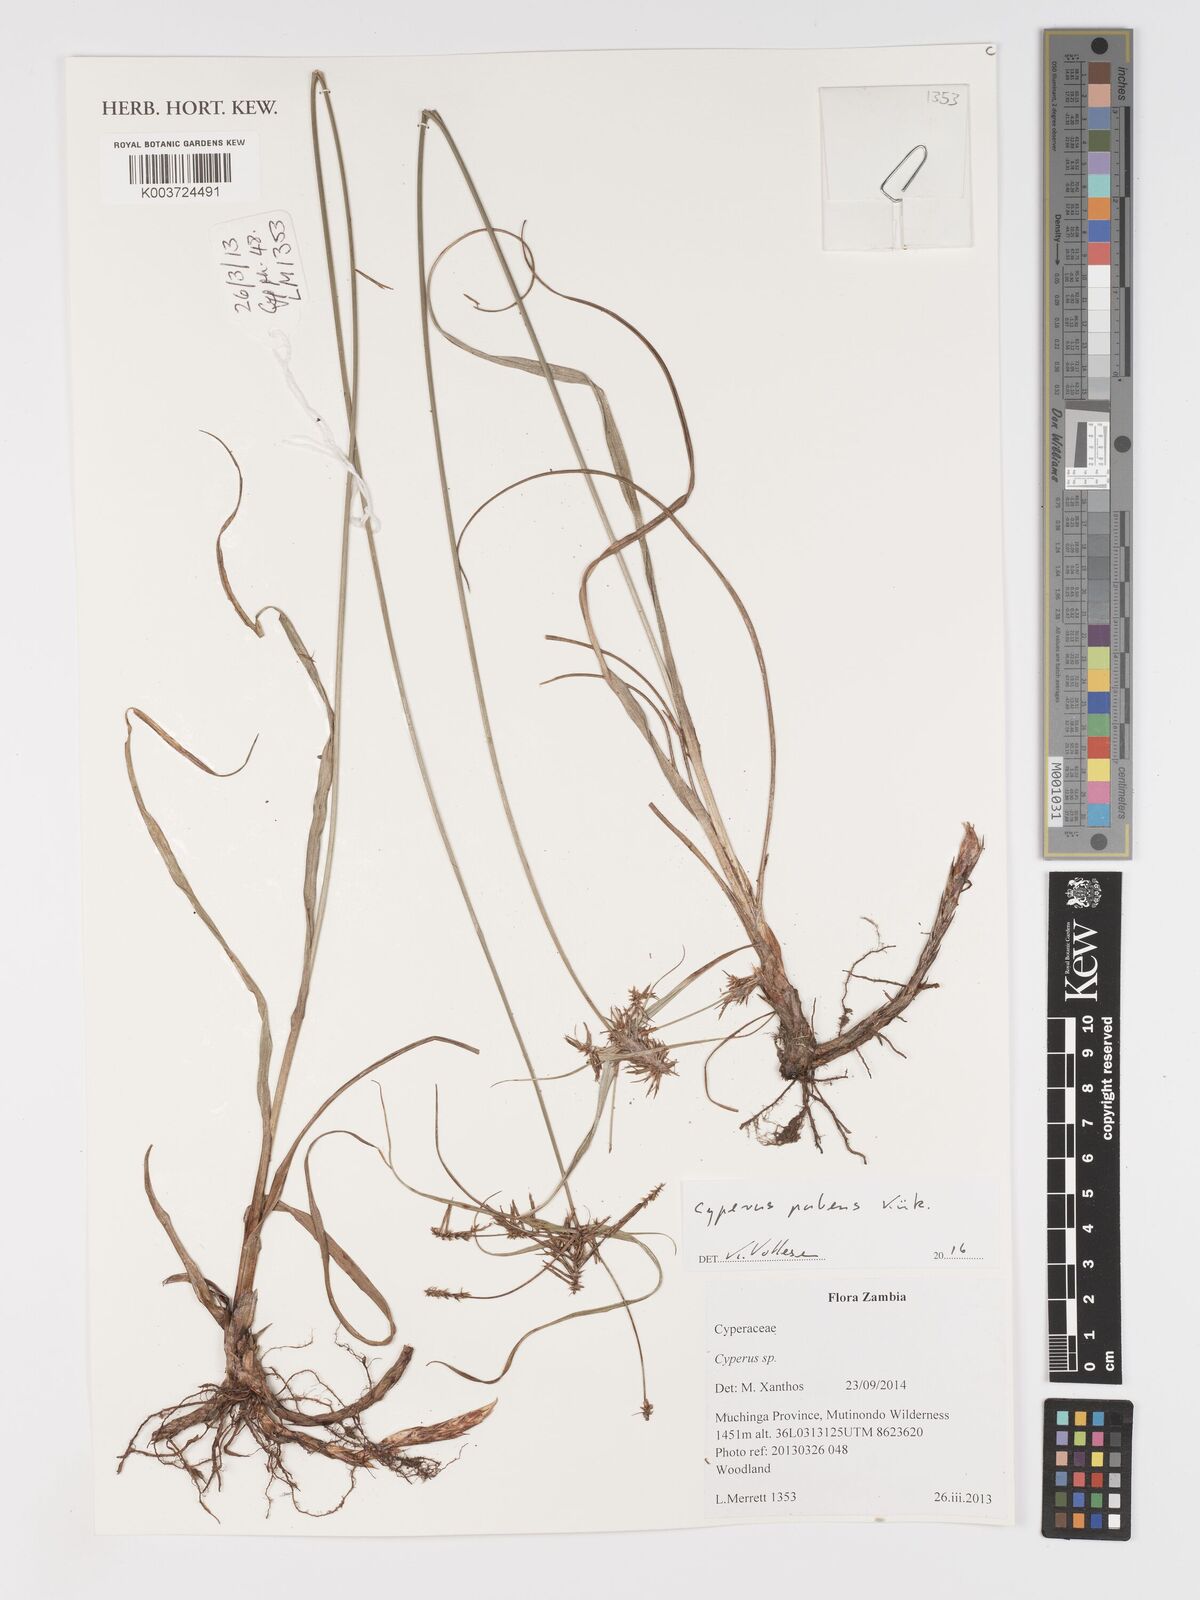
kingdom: Plantae
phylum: Tracheophyta
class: Liliopsida
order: Poales
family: Cyperaceae
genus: Cyperus
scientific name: Cyperus pubens
